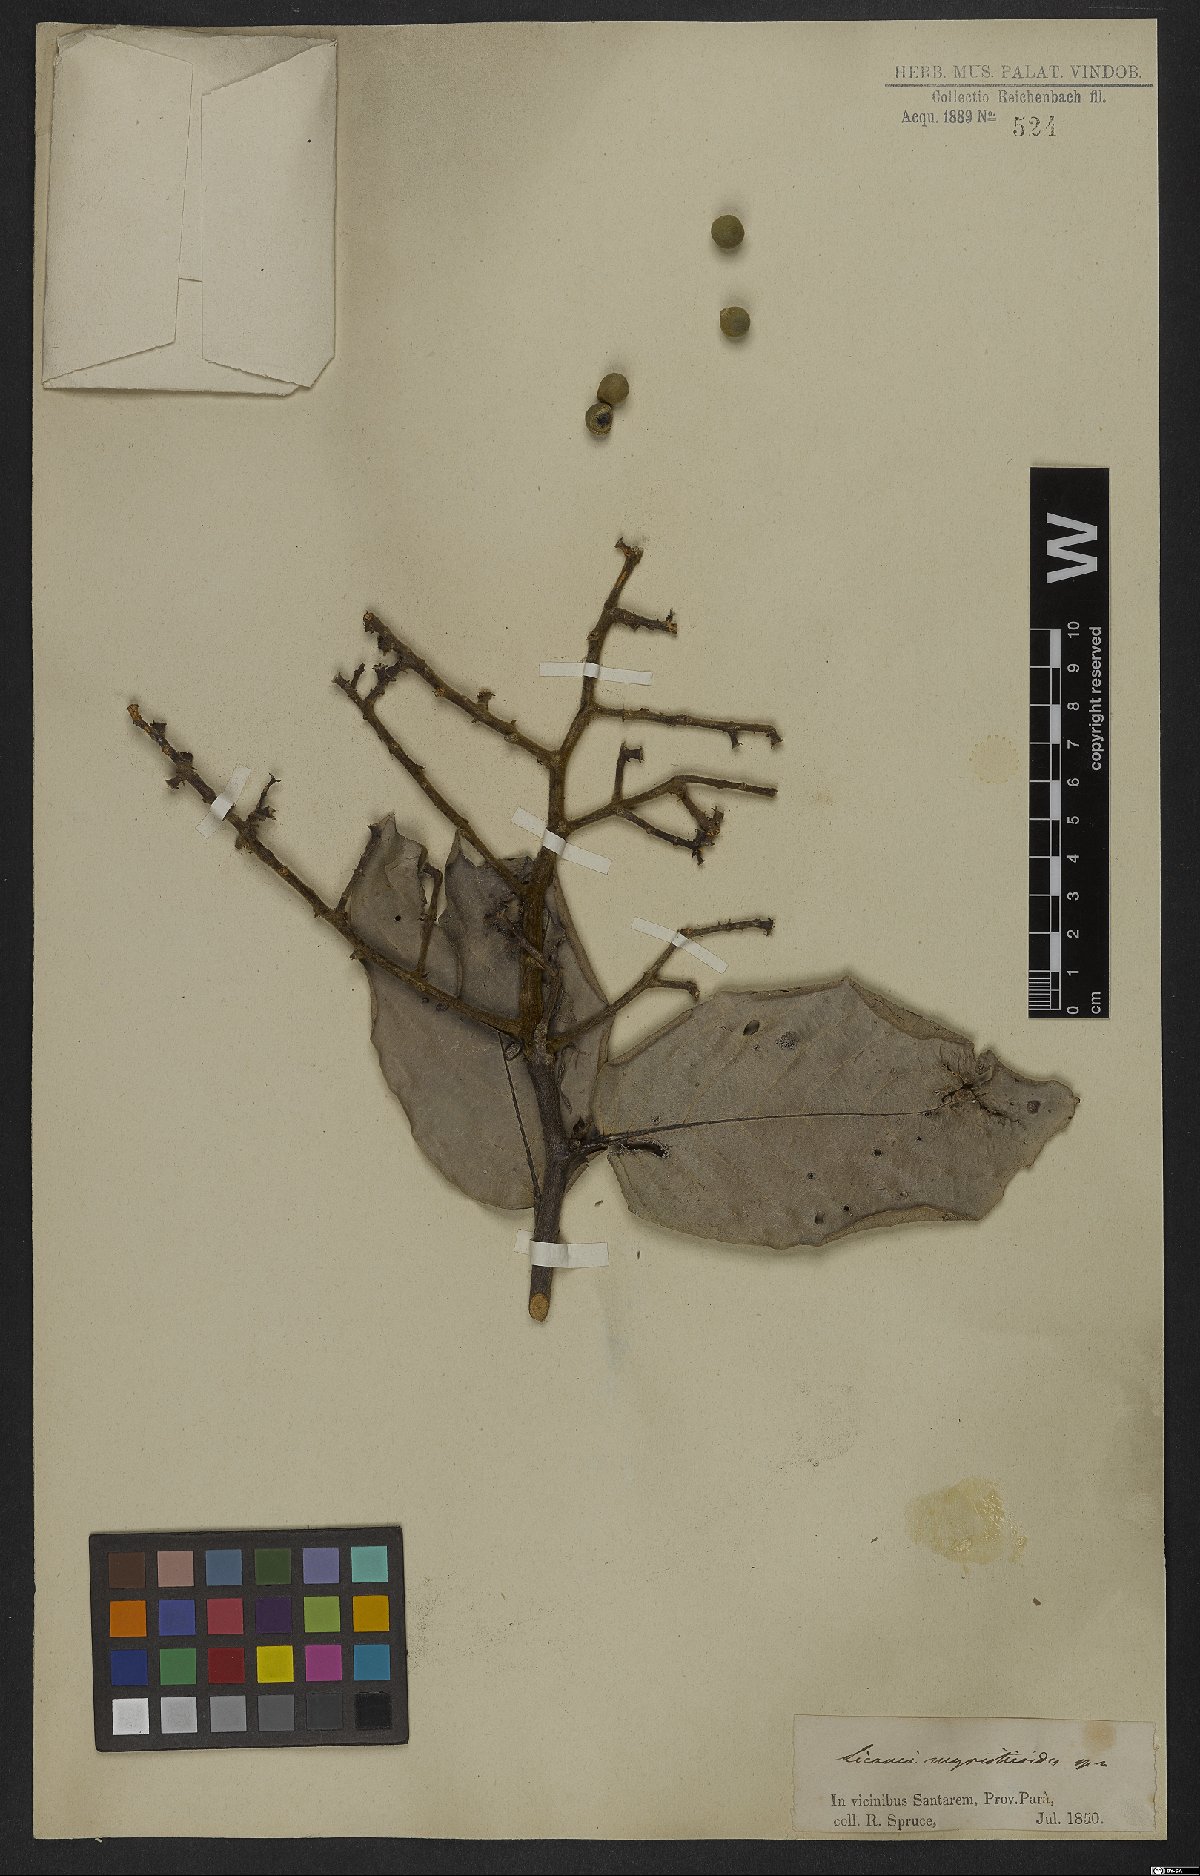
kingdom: Plantae
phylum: Tracheophyta
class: Magnoliopsida
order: Malpighiales
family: Chrysobalanaceae
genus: Licania
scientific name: Licania sclerophylla
